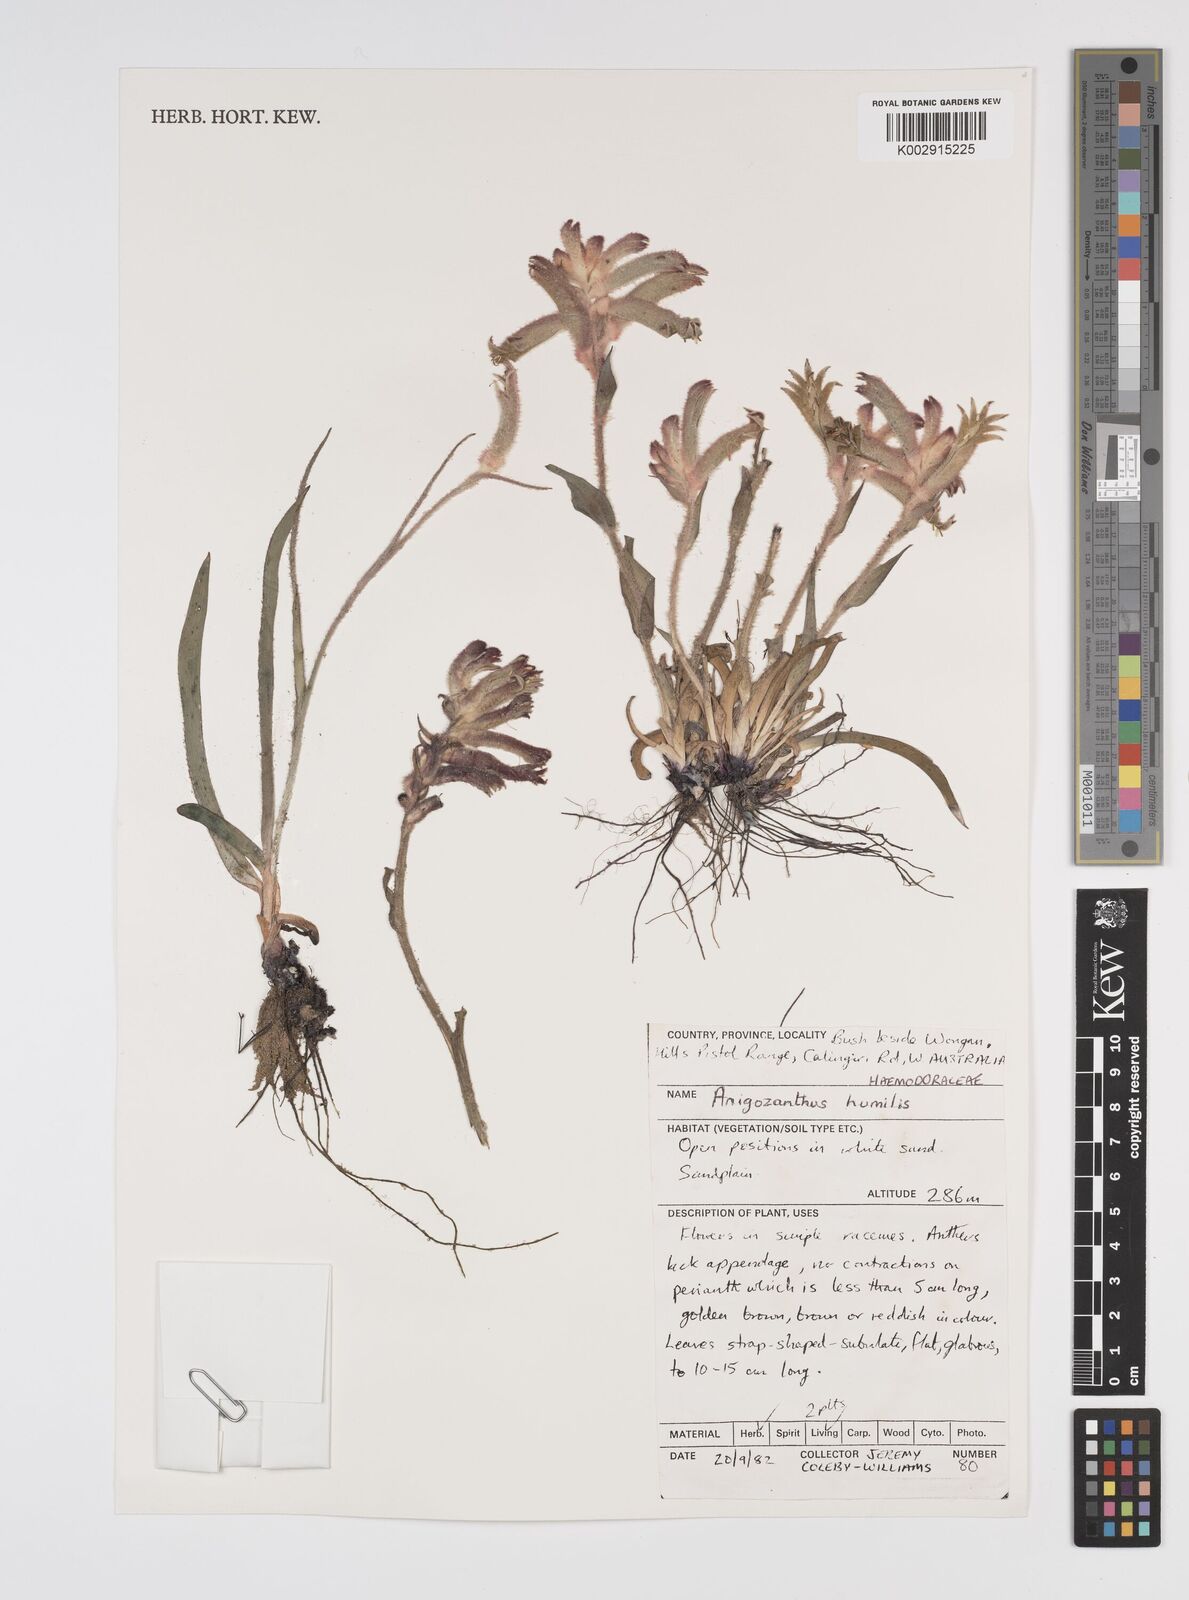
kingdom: Plantae
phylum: Tracheophyta
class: Liliopsida
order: Commelinales
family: Haemodoraceae
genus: Anigozanthos
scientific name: Anigozanthos humilis
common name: Cat's-paw
